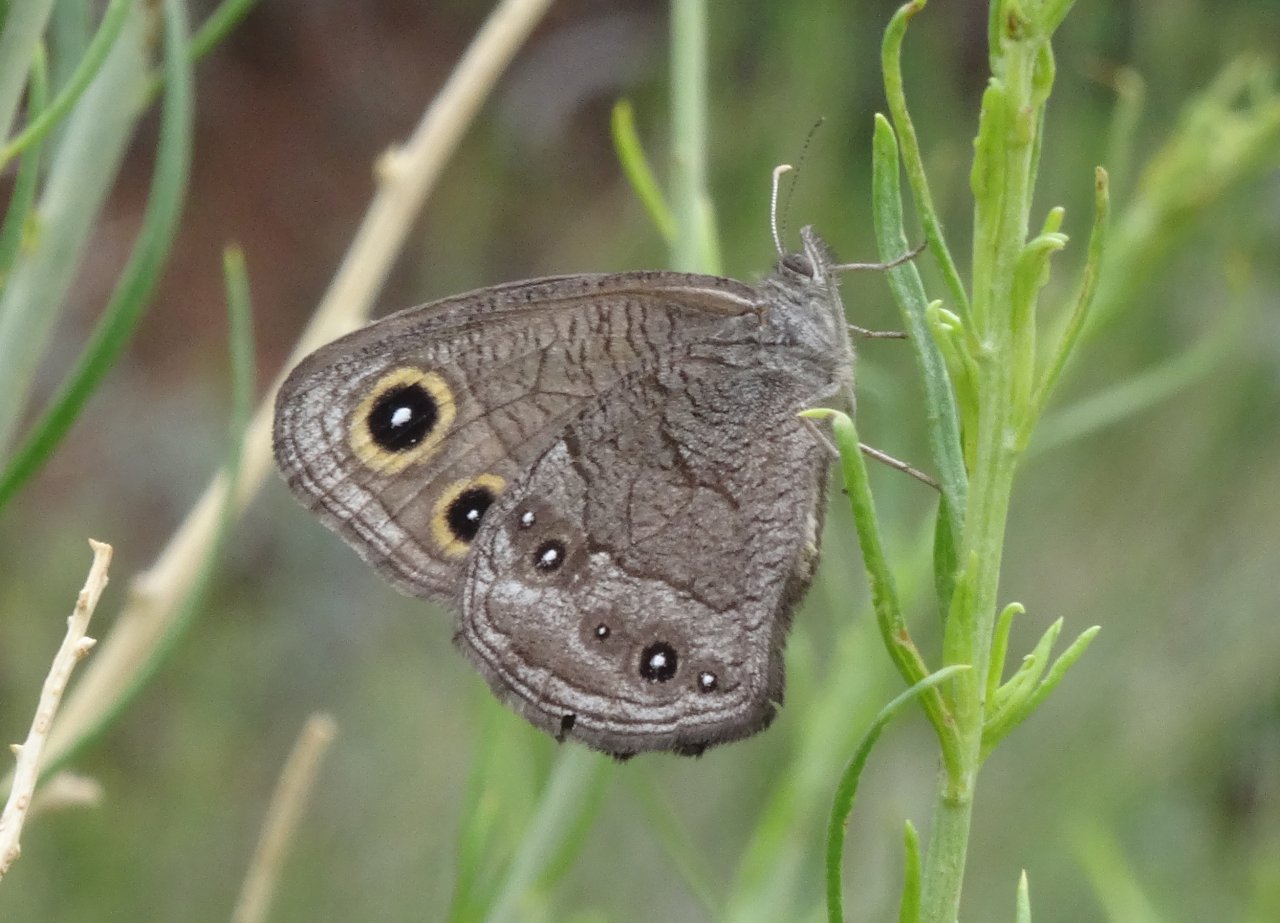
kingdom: Animalia
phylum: Arthropoda
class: Insecta
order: Lepidoptera
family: Nymphalidae
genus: Cercyonis
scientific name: Cercyonis pegala
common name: Common Wood-Nymph
